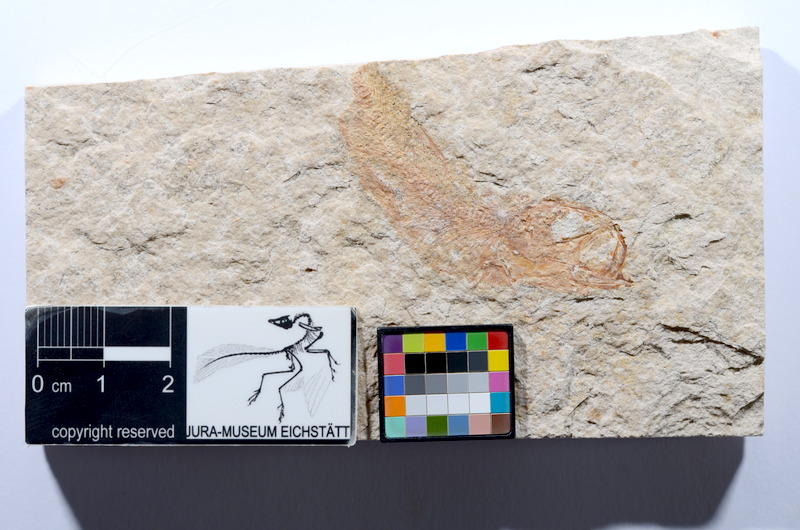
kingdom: Animalia
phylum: Chordata
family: Ascalaboidae
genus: Tharsis
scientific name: Tharsis dubius
